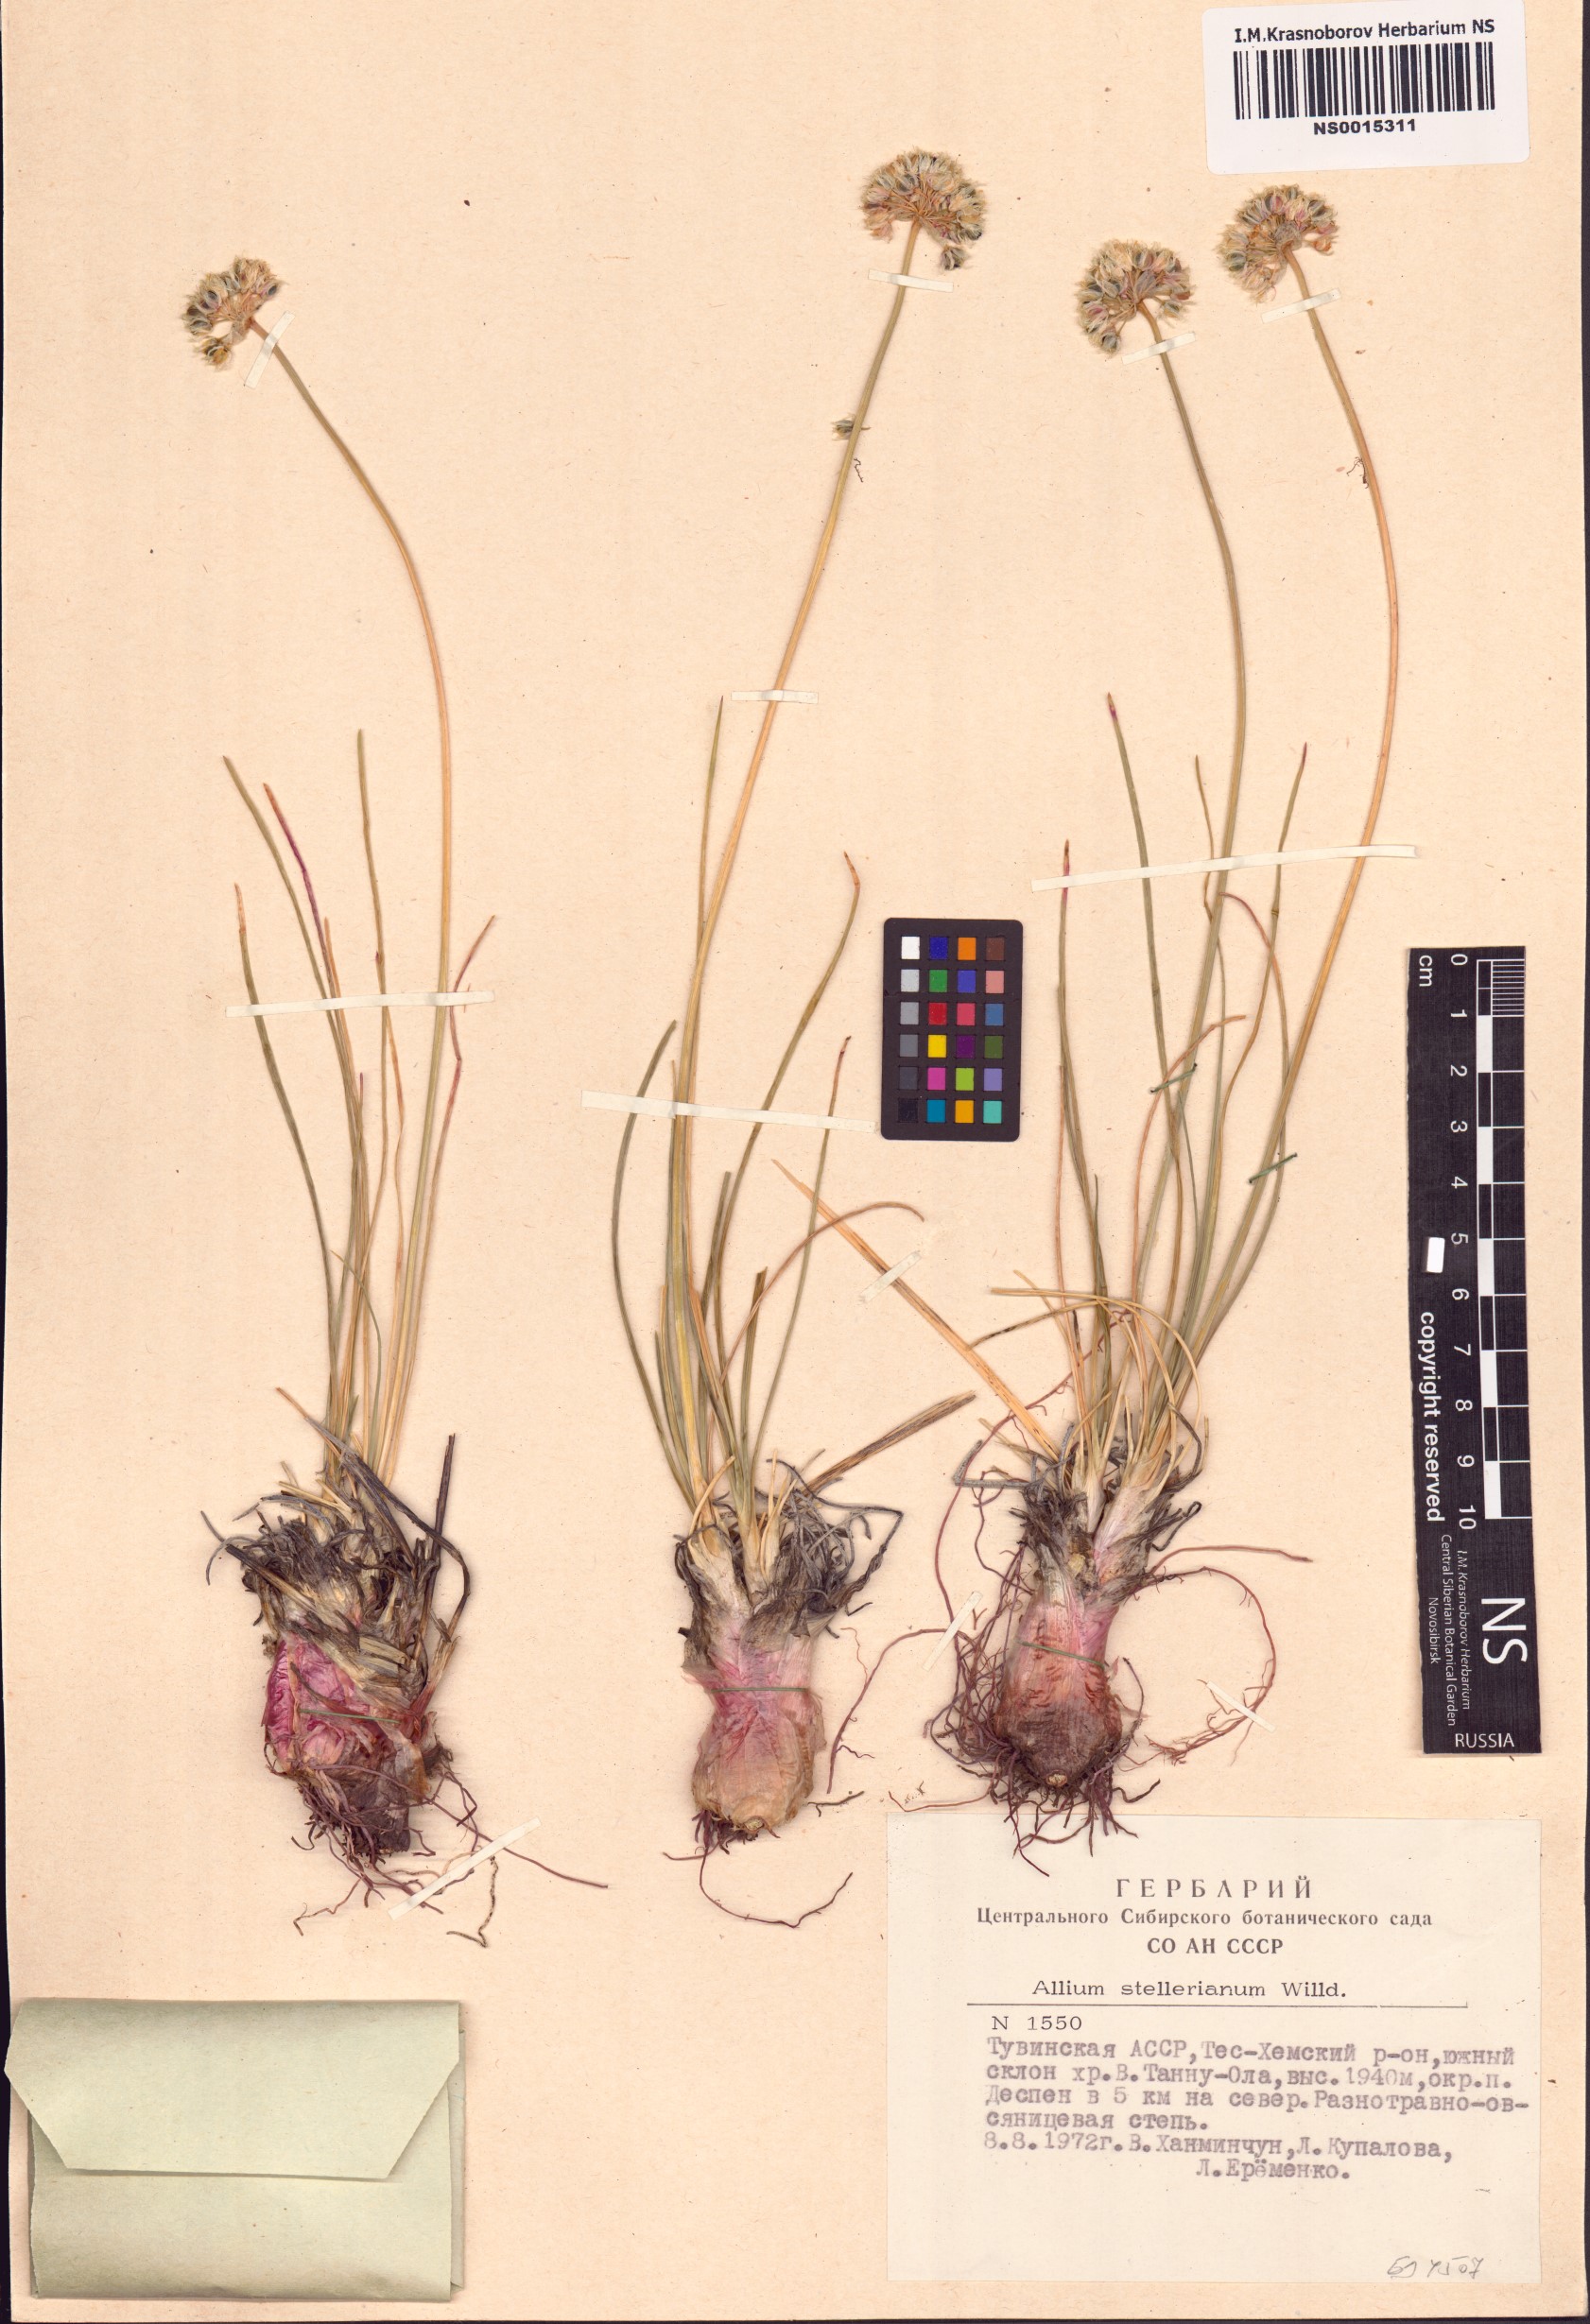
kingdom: Plantae
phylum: Tracheophyta
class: Liliopsida
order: Asparagales
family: Amaryllidaceae
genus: Allium
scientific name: Allium stellerianum
